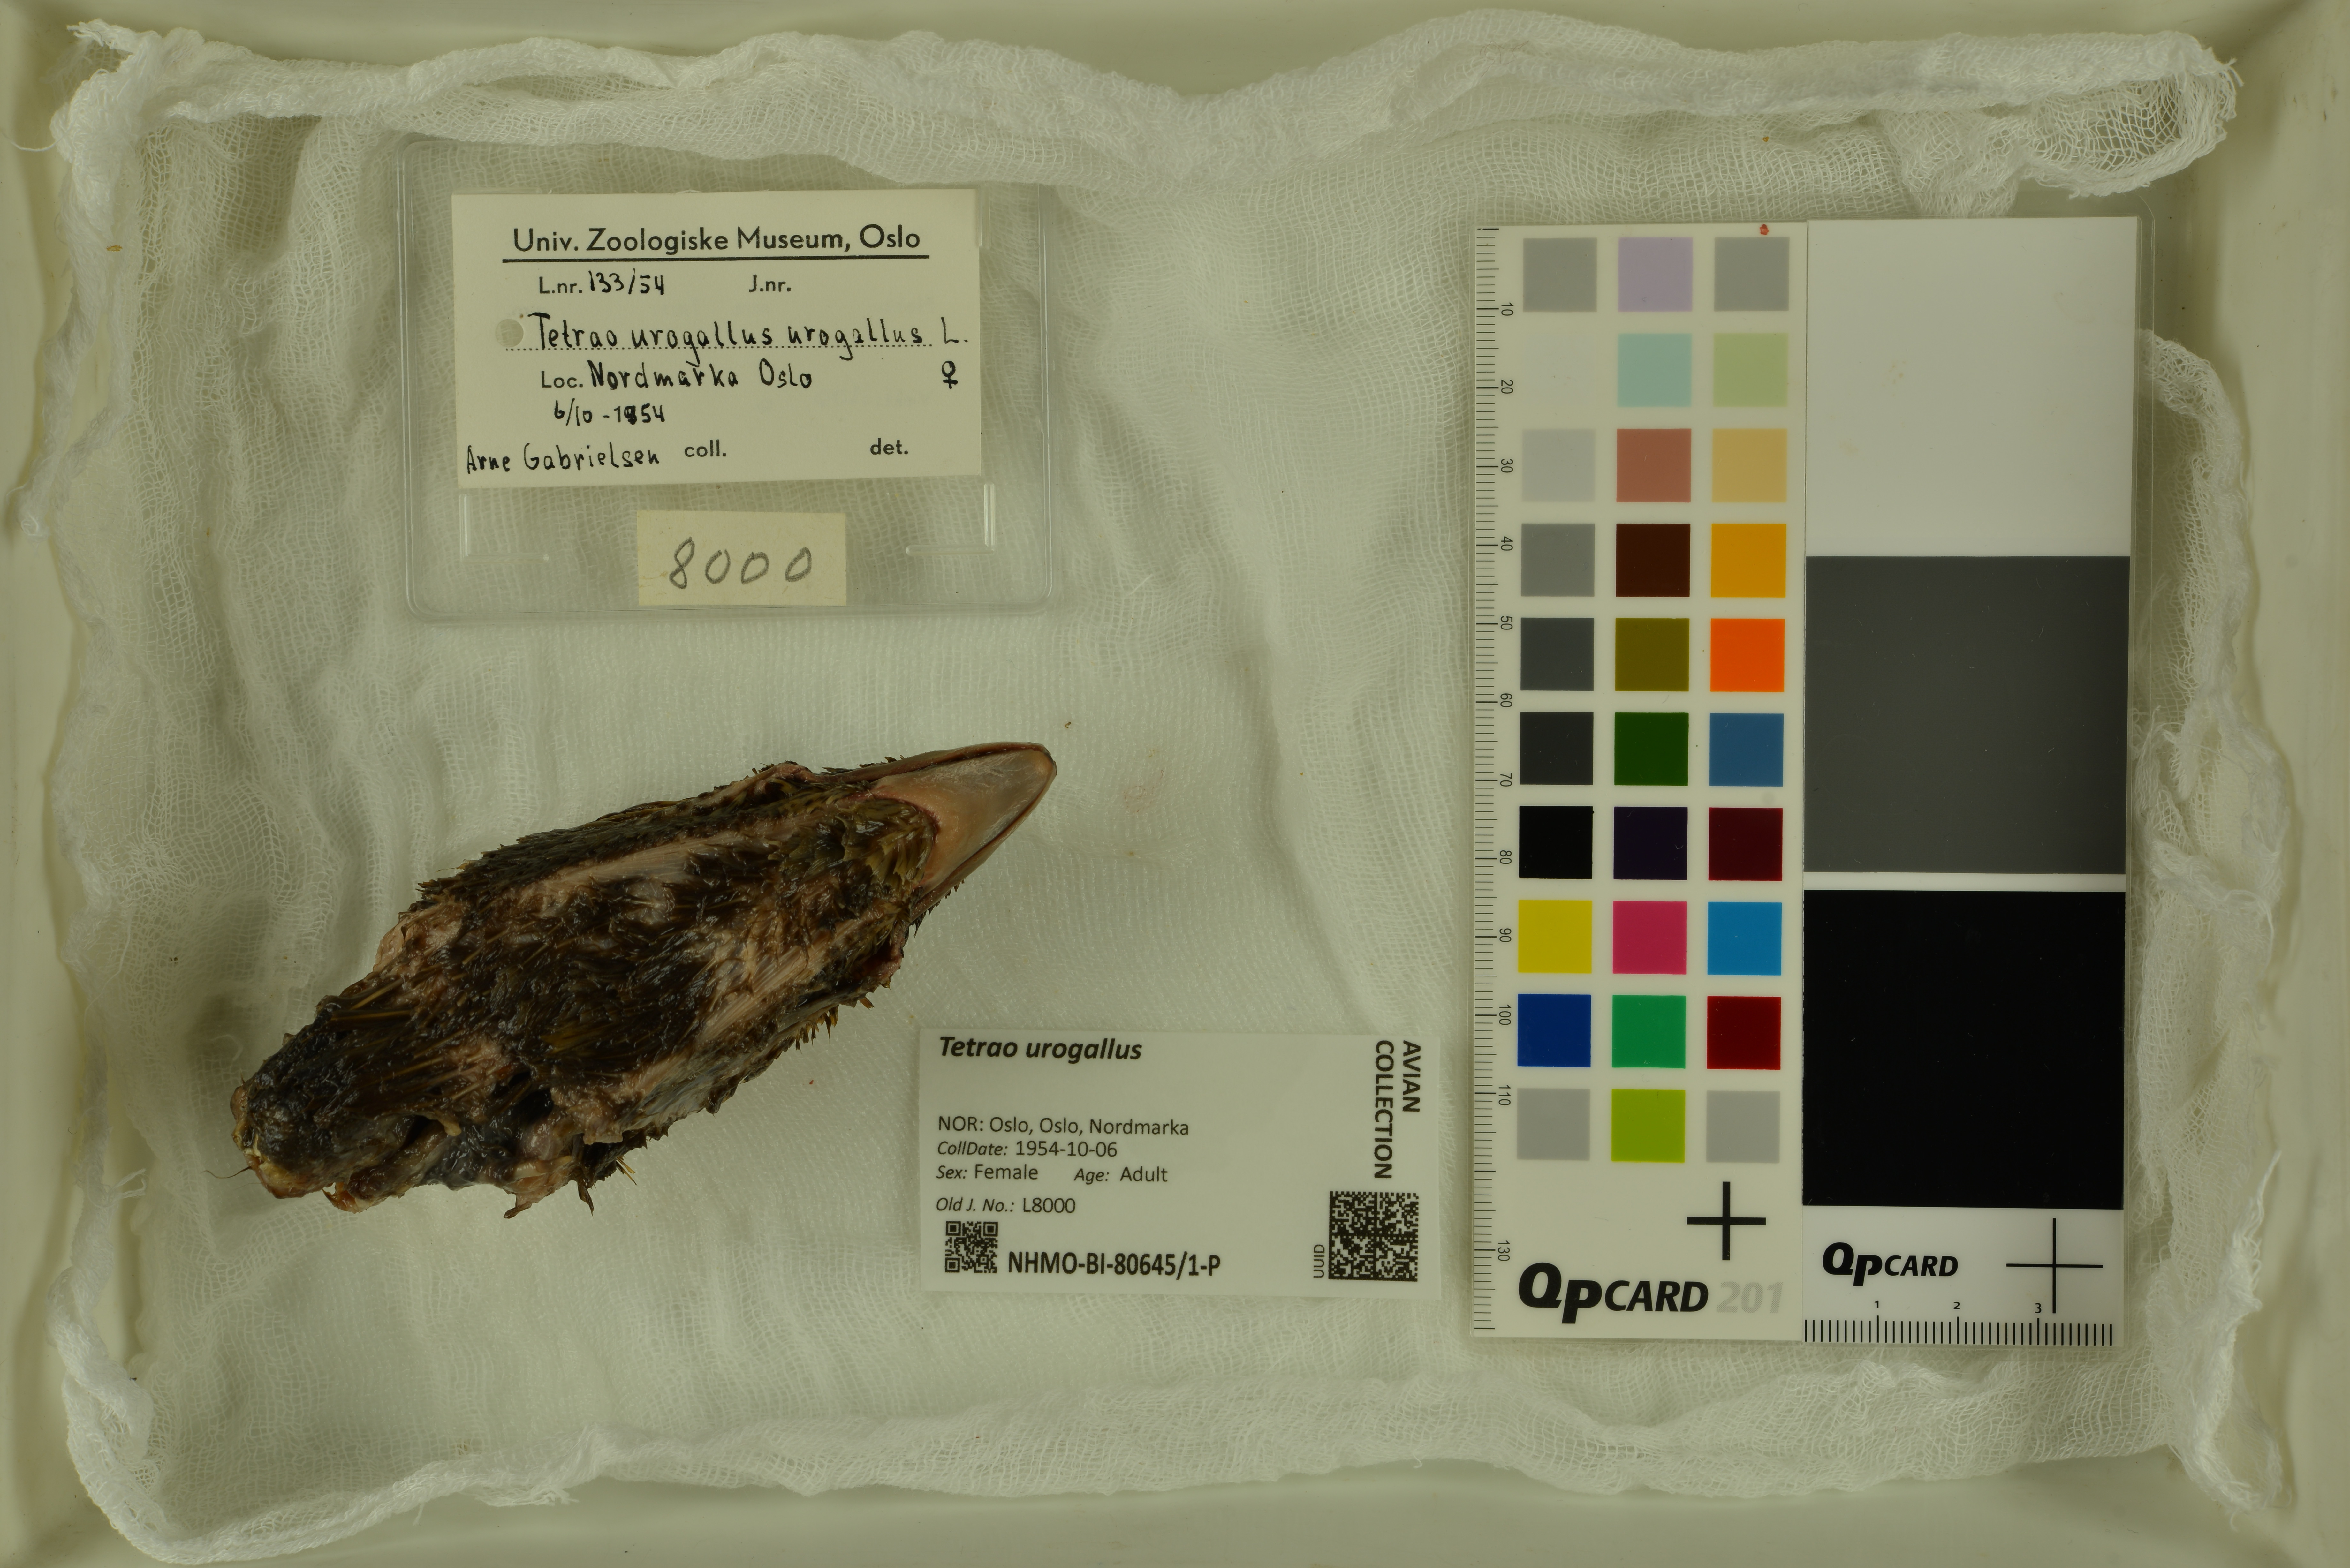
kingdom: Animalia
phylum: Chordata
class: Aves
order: Galliformes
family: Phasianidae
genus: Tetrao
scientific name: Tetrao urogallus
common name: Western capercaillie
